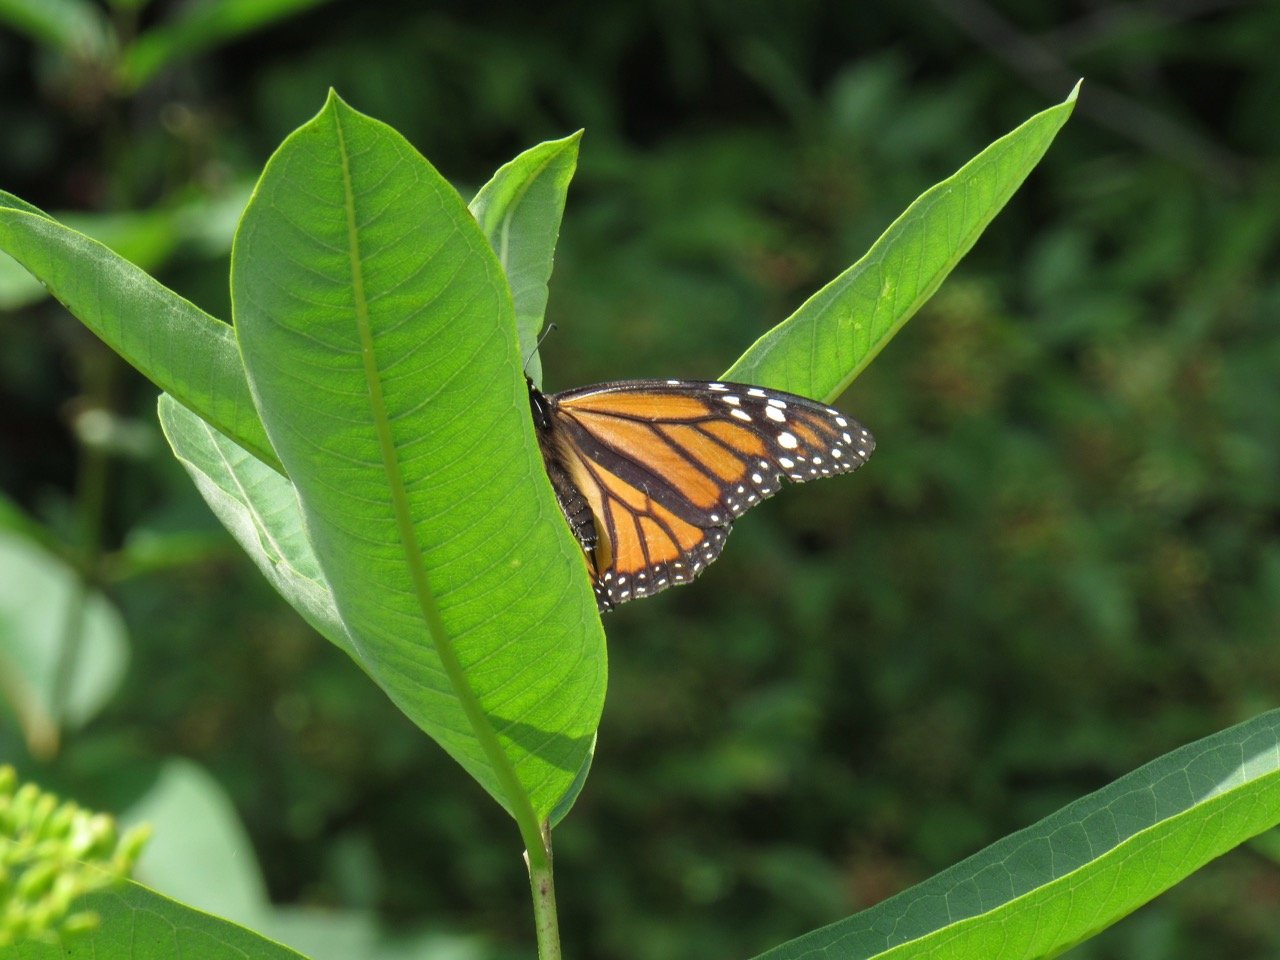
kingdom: Animalia
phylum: Arthropoda
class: Insecta
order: Lepidoptera
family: Nymphalidae
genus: Danaus
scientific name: Danaus plexippus
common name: Monarch
